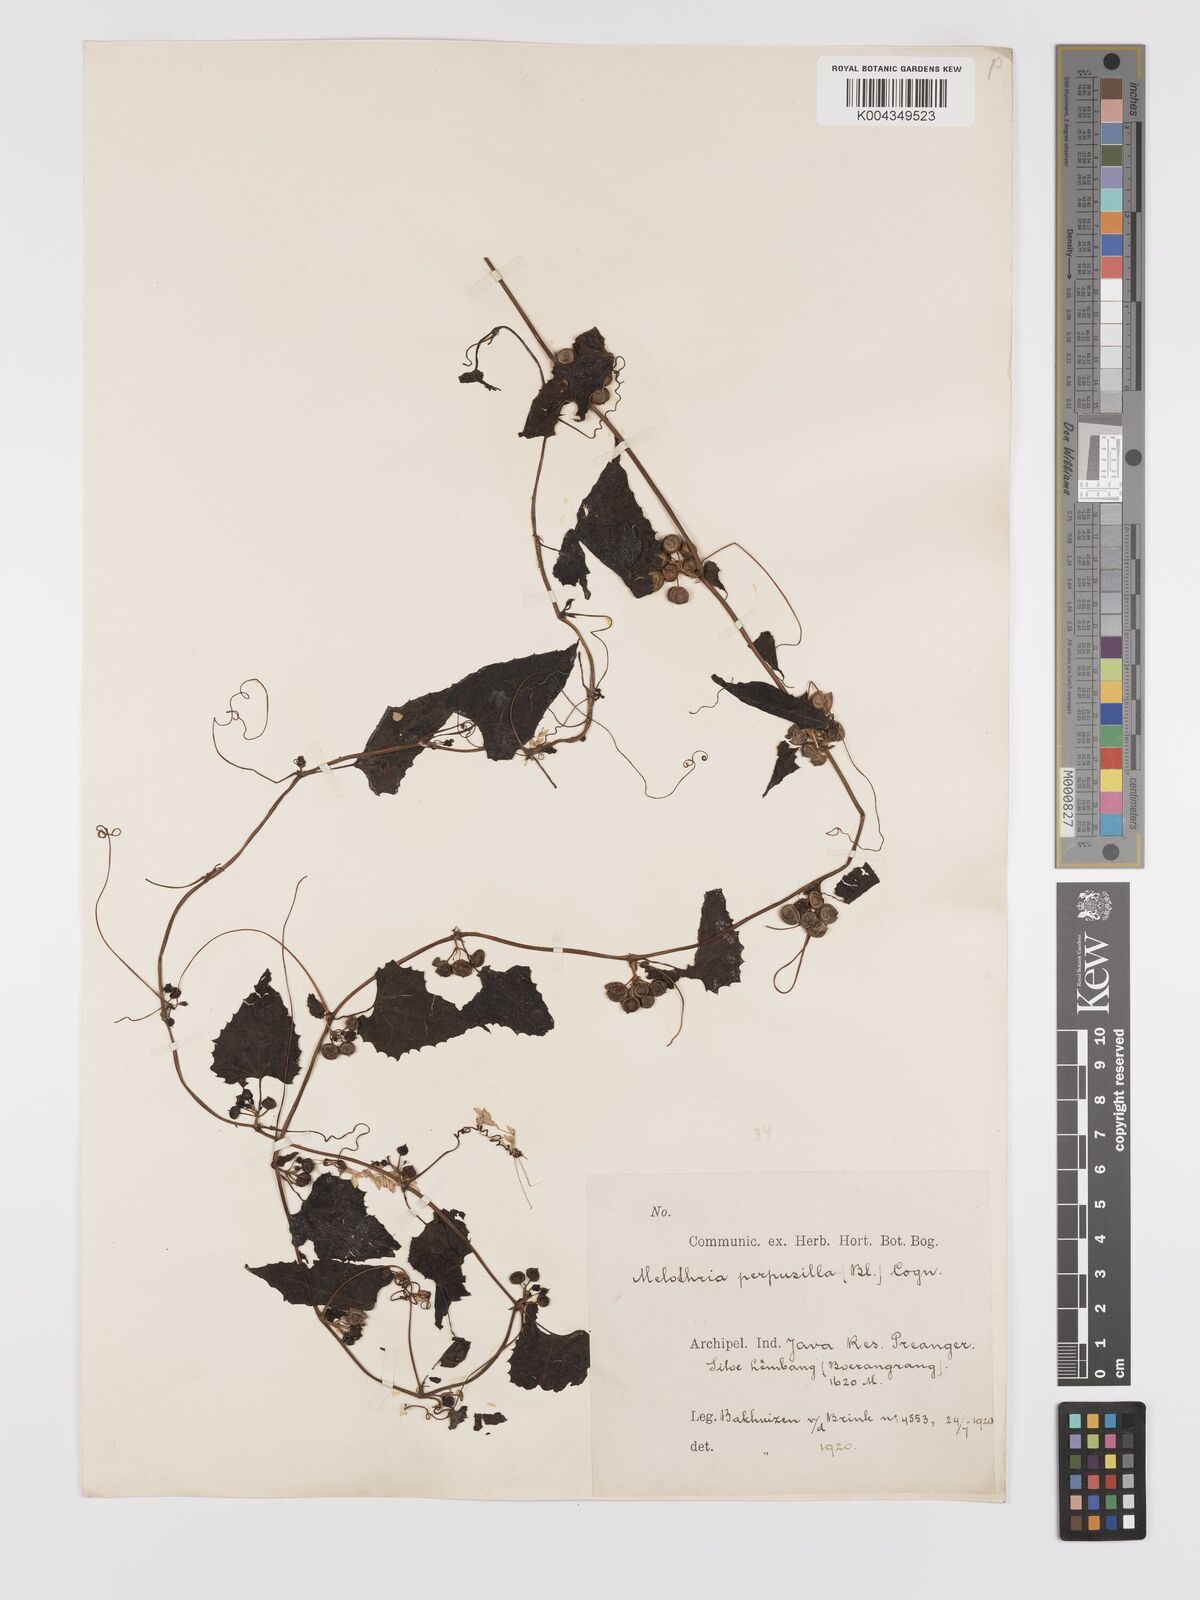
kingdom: Plantae
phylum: Tracheophyta
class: Magnoliopsida
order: Cucurbitales
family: Cucurbitaceae
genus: Zehneria
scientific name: Zehneria scabra
